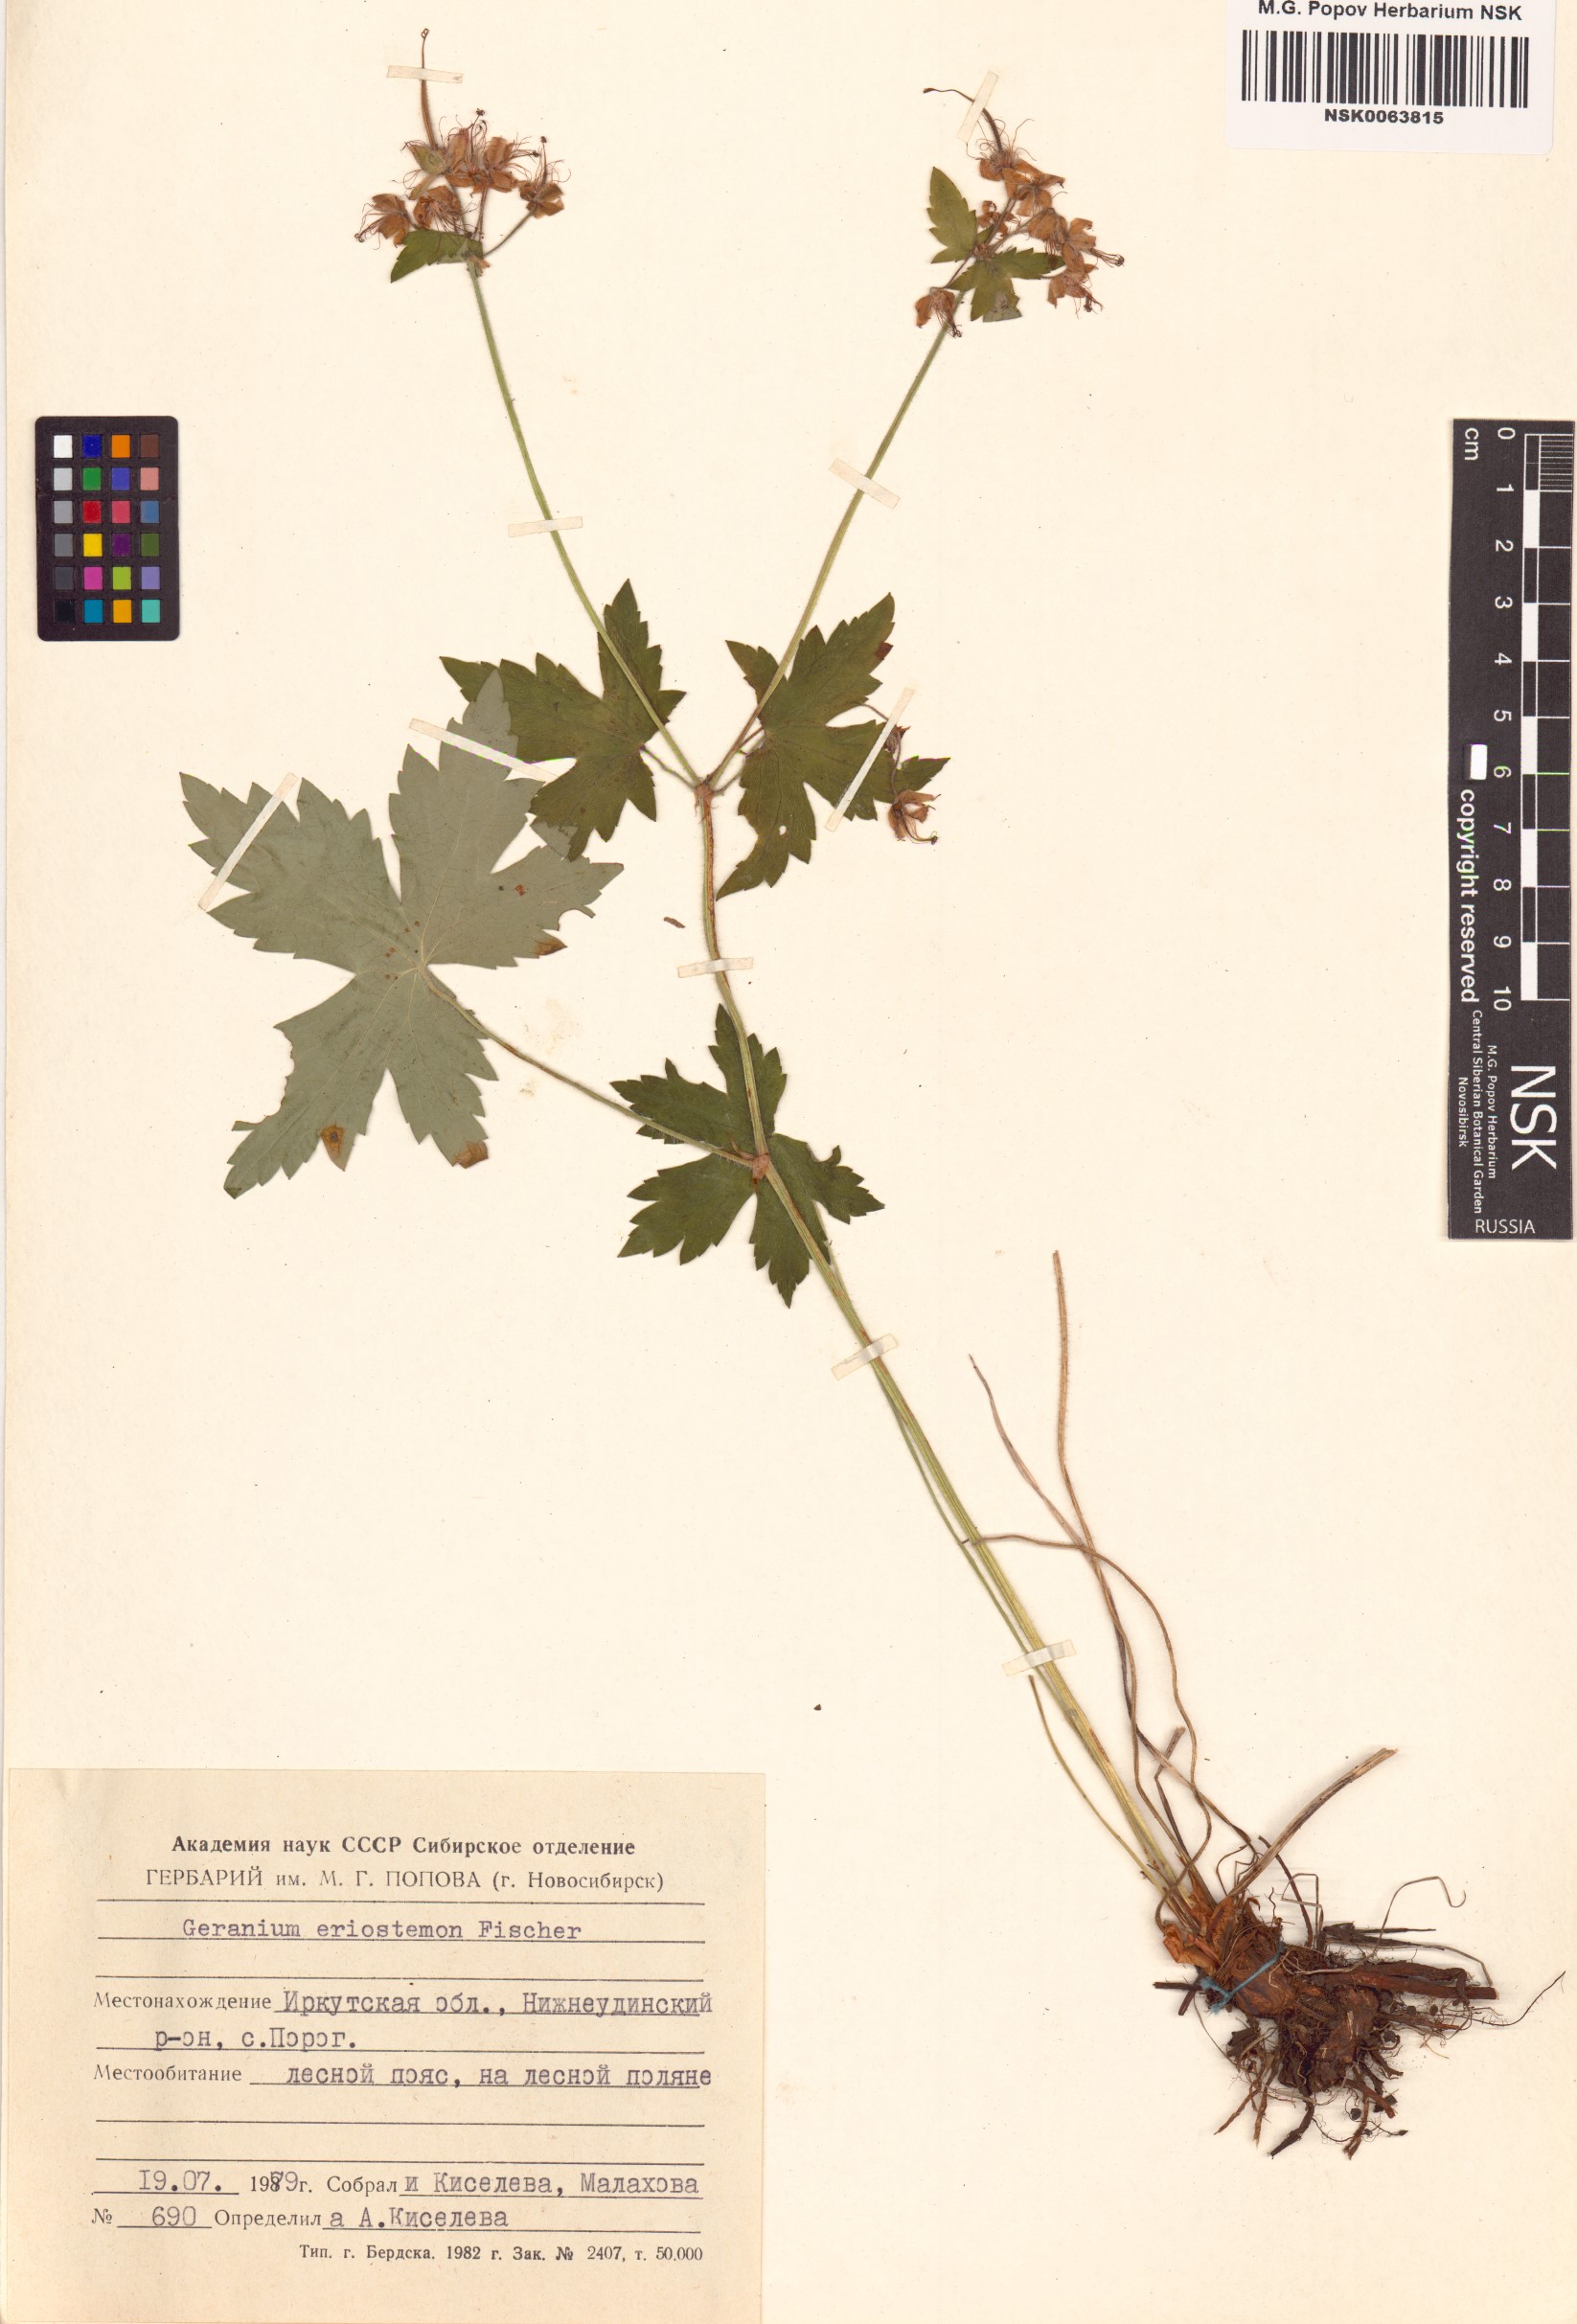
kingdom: Plantae
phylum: Tracheophyta
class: Magnoliopsida
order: Geraniales
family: Geraniaceae
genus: Geranium
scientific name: Geranium platyanthum
